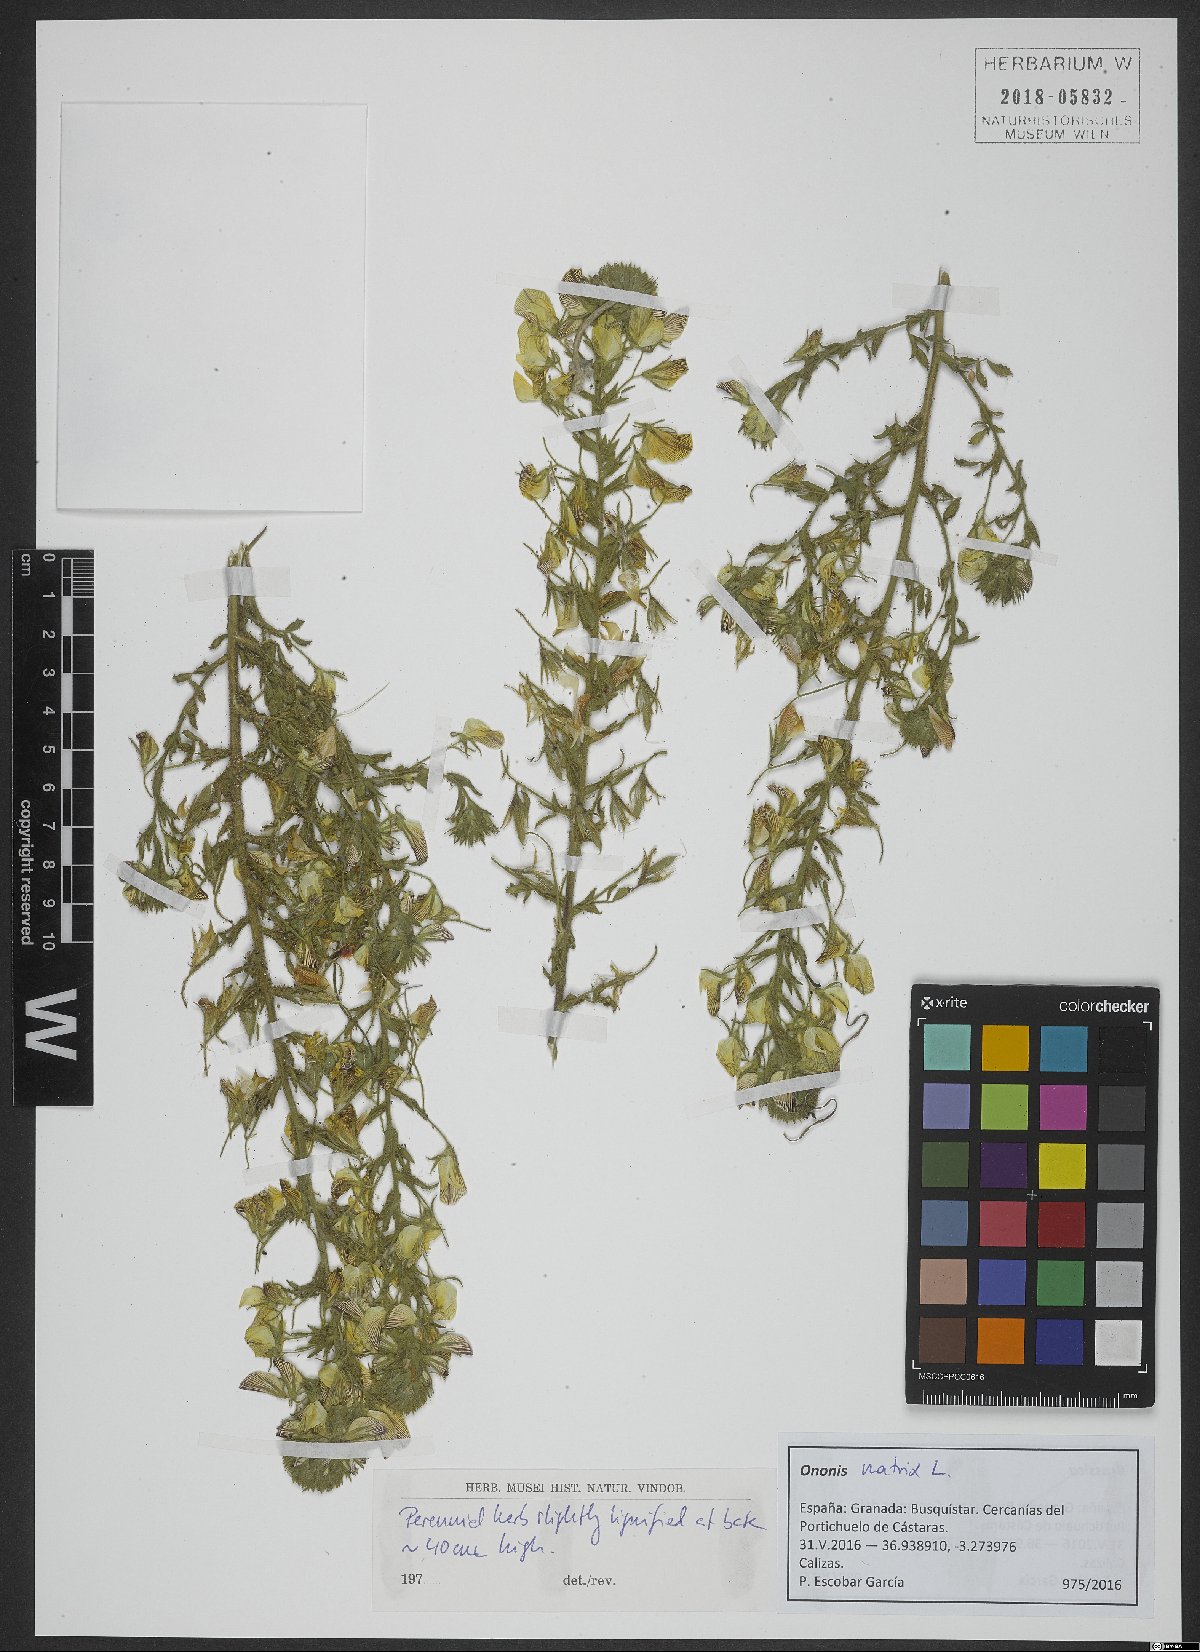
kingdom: Plantae
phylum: Tracheophyta
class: Magnoliopsida
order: Fabales
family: Fabaceae
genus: Ononis
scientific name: Ononis natrix
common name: Yellow restharrow
